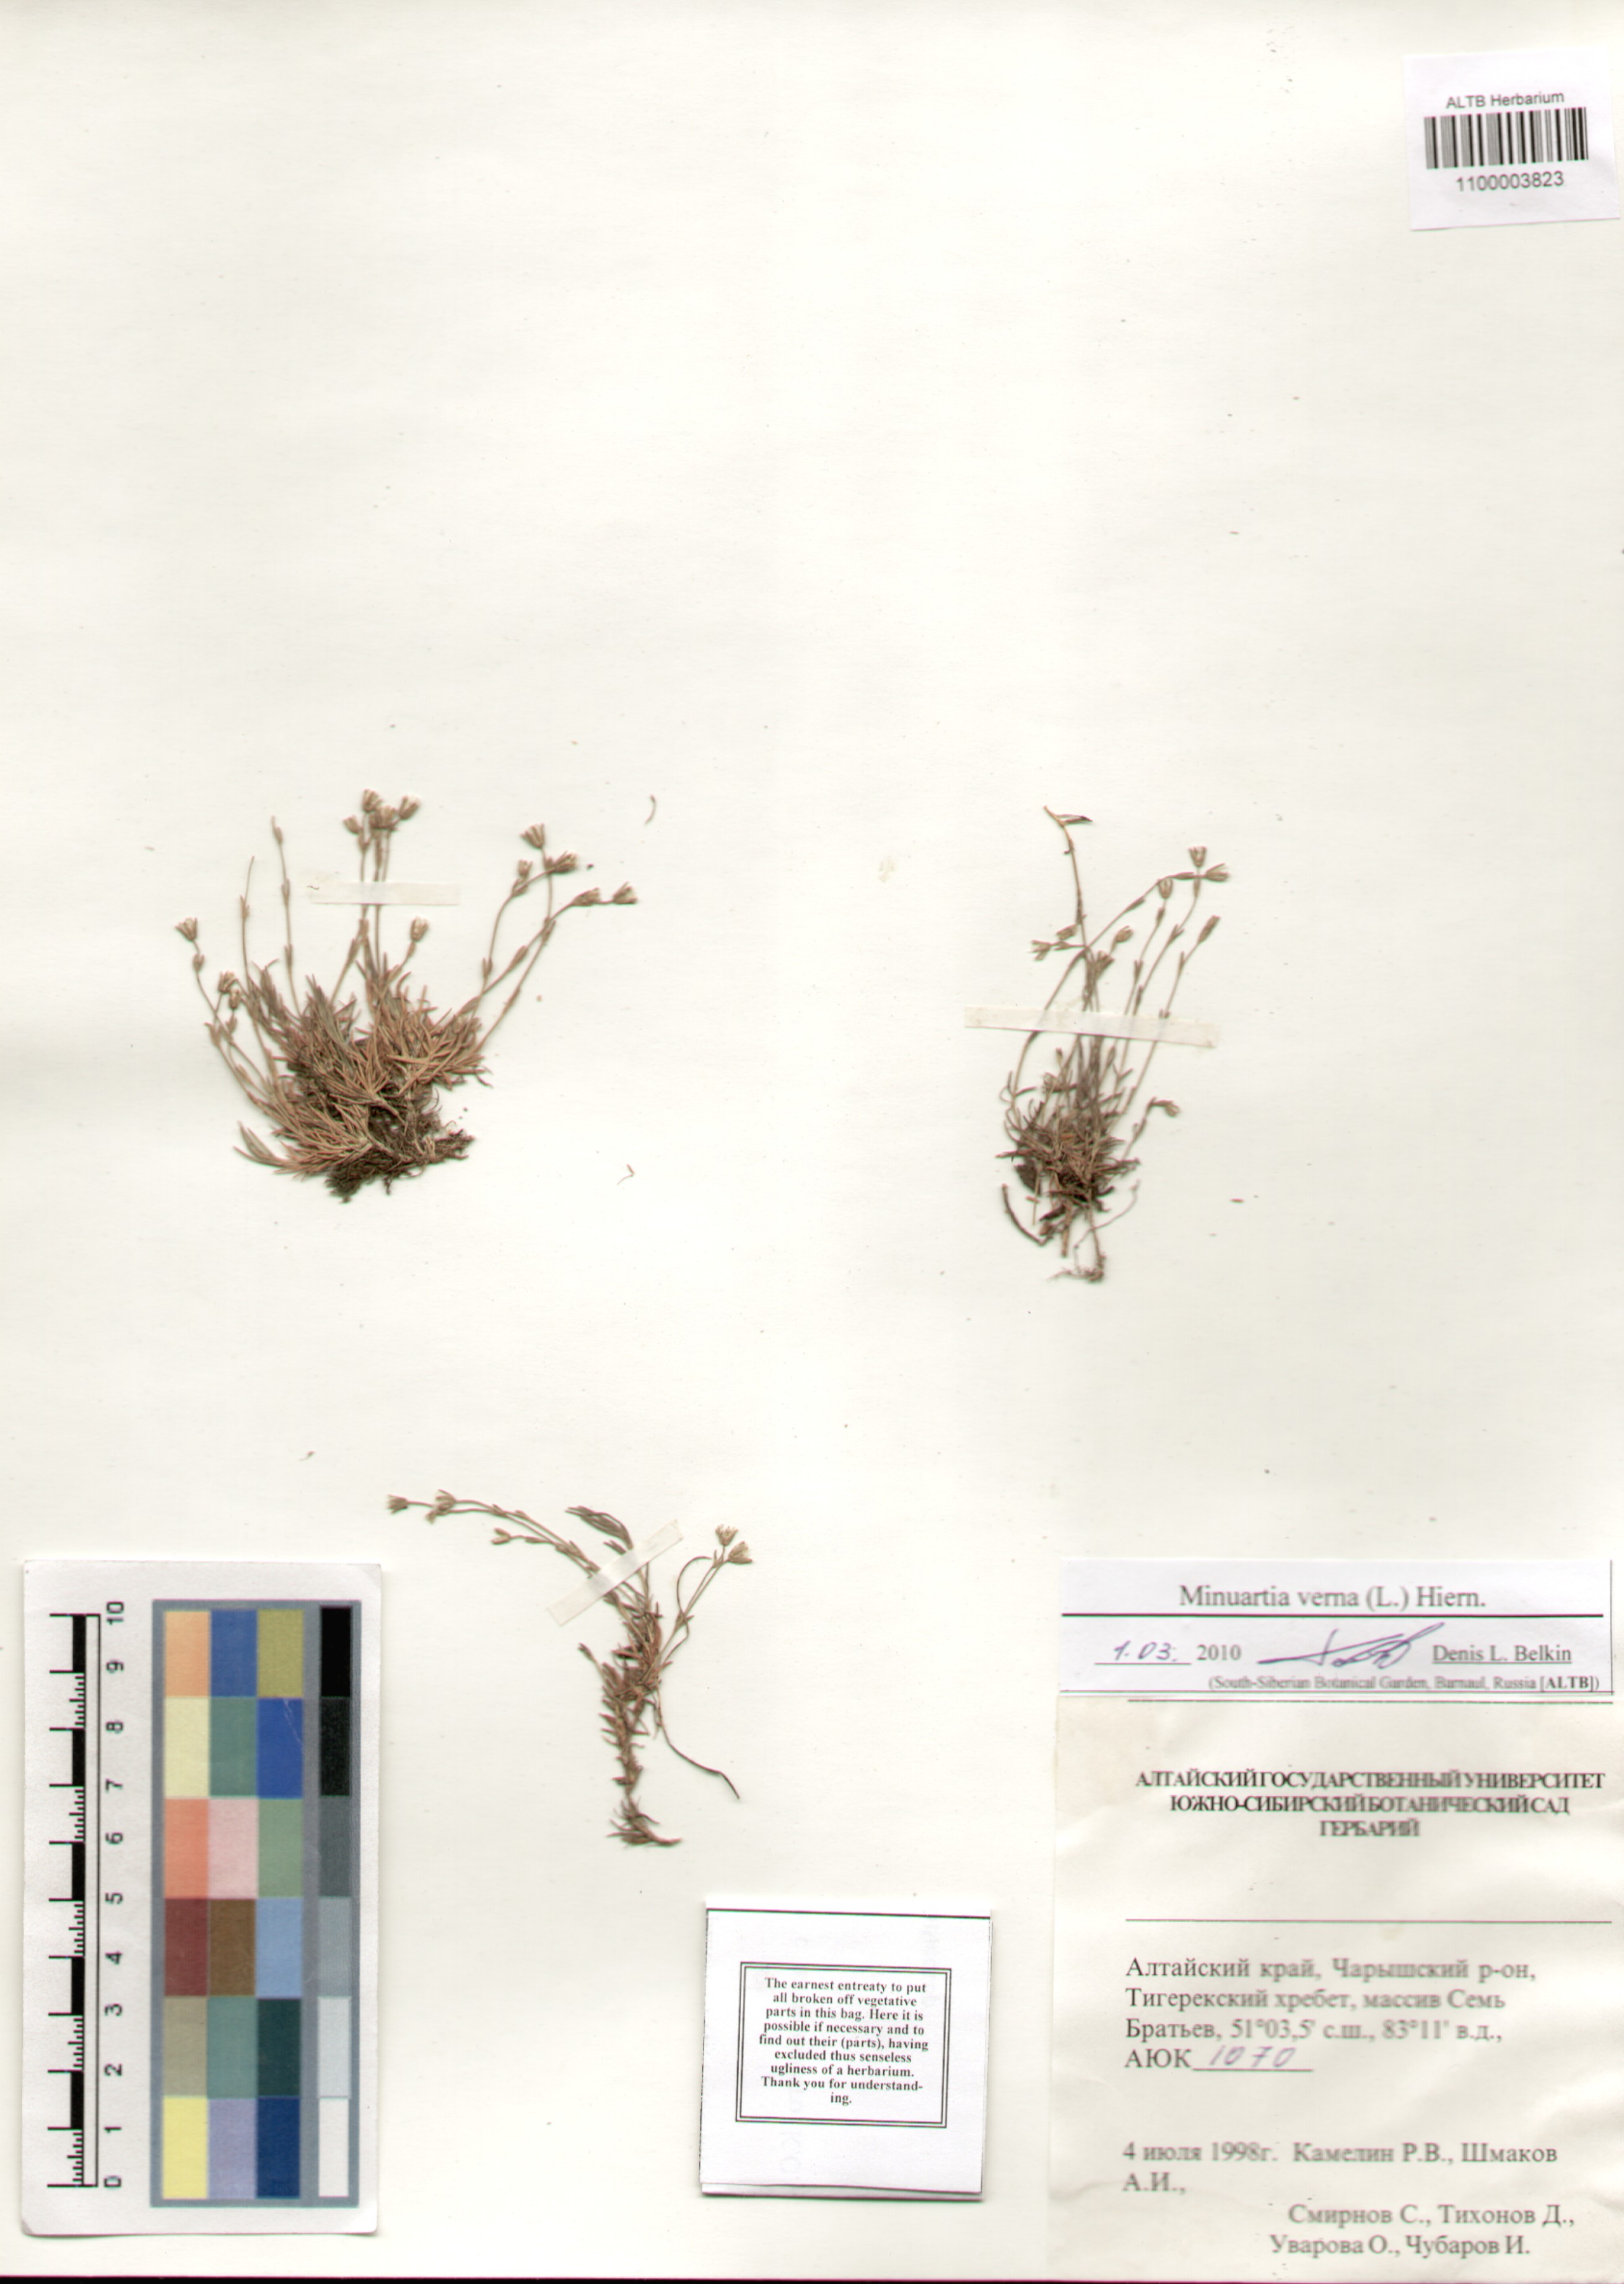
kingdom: Plantae
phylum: Tracheophyta
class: Magnoliopsida
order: Caryophyllales
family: Caryophyllaceae
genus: Sabulina
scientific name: Sabulina verna
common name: Spring sandwort
